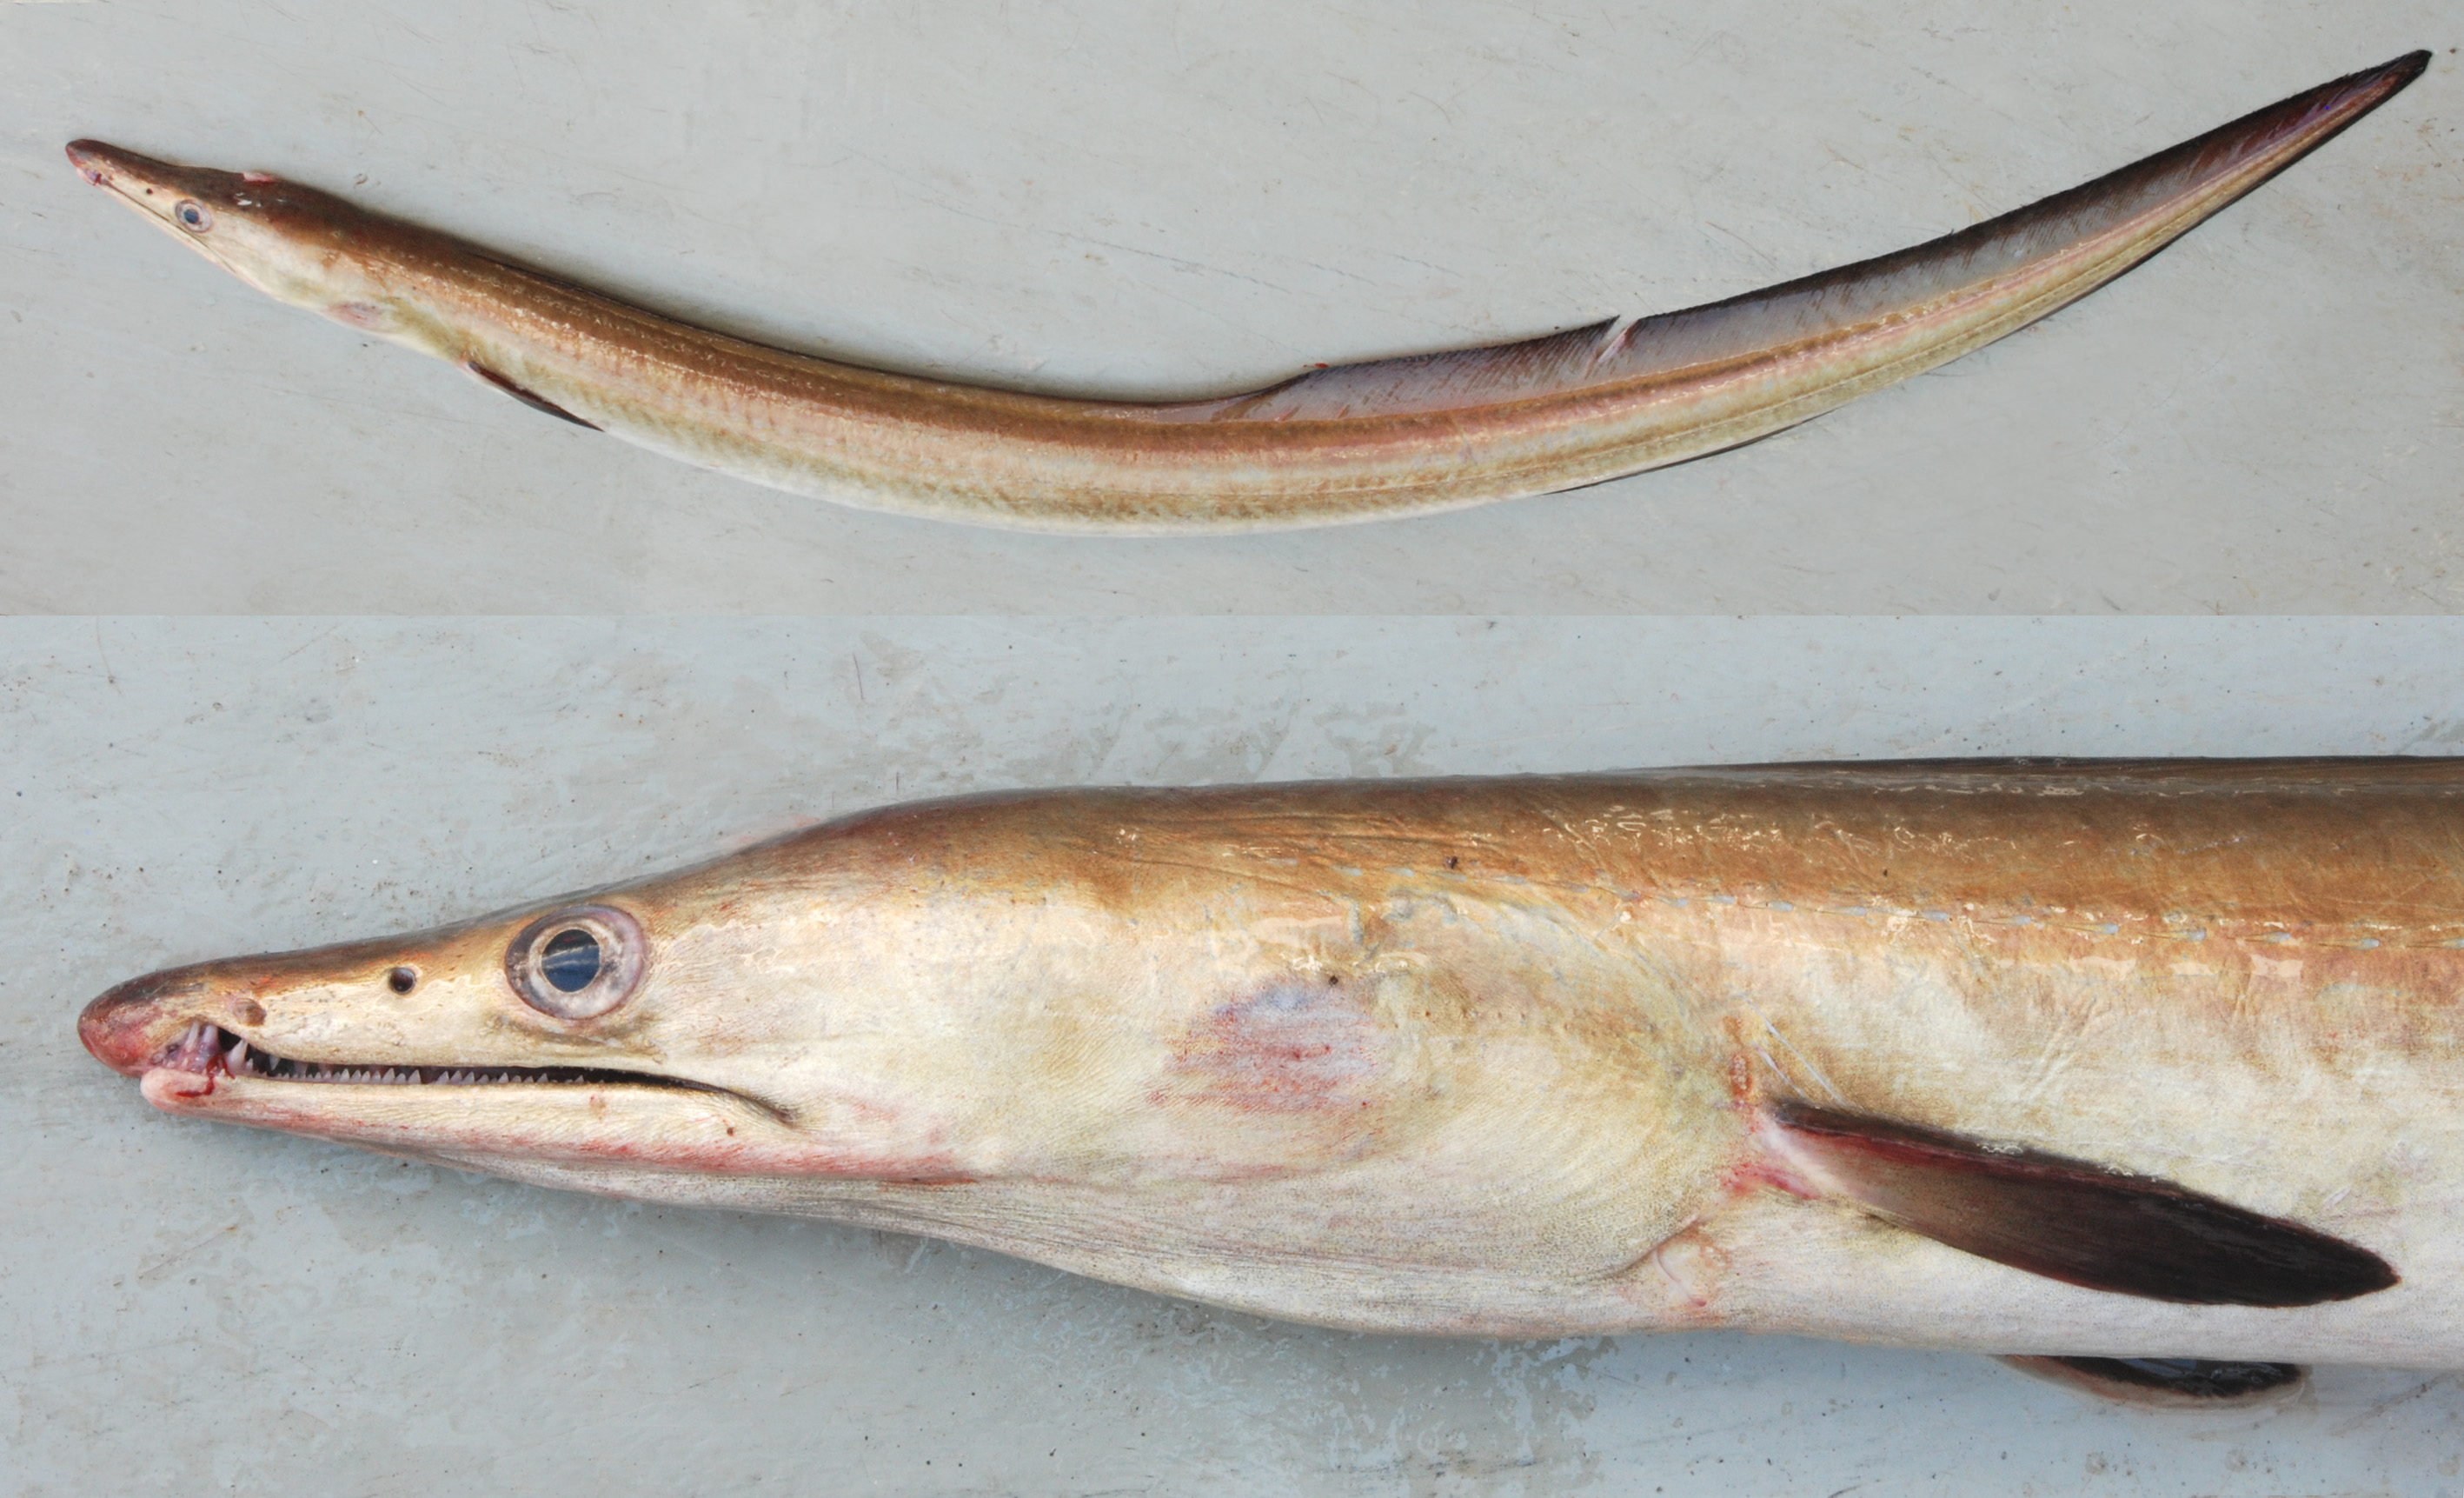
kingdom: Animalia
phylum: Chordata
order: Anguilliformes
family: Muraenesocidae
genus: Muraenesox
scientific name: Muraenesox bagio
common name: Common pike conger
